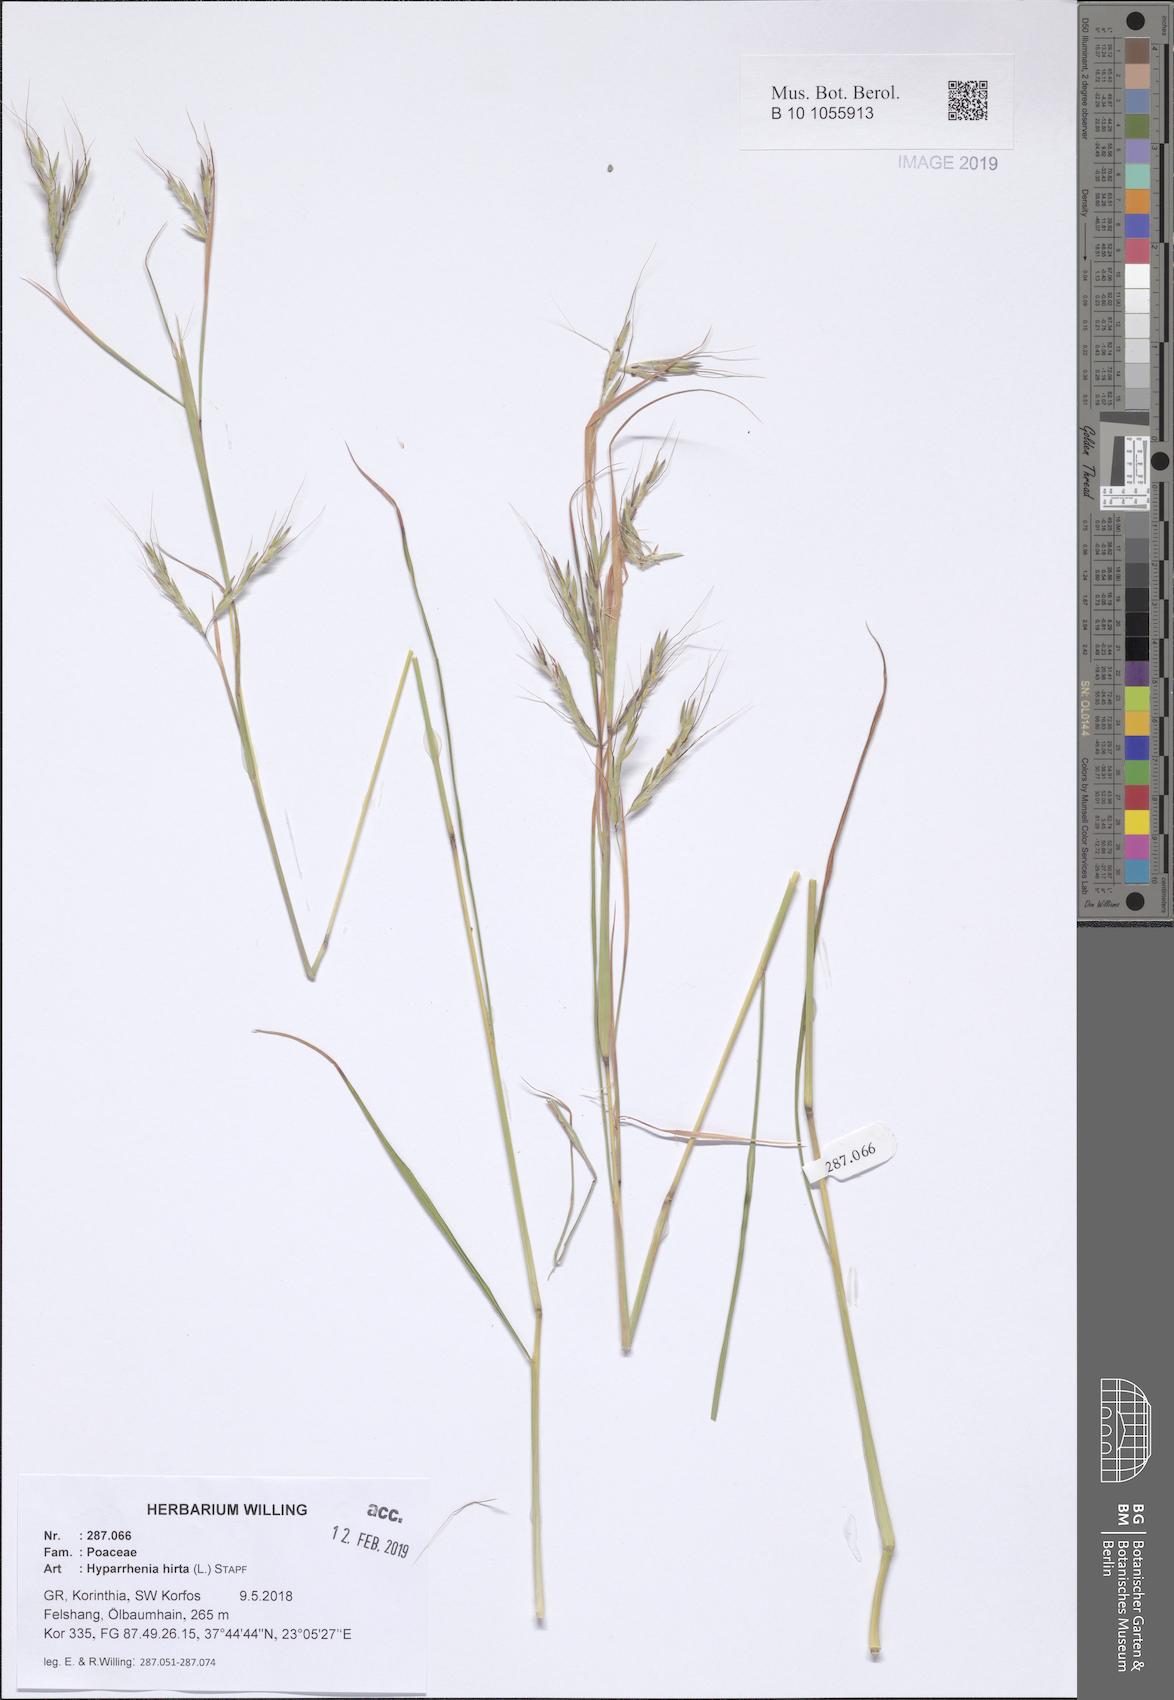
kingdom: Plantae
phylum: Tracheophyta
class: Liliopsida
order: Poales
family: Poaceae
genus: Hyparrhenia
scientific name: Hyparrhenia hirta
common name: Thatching grass
